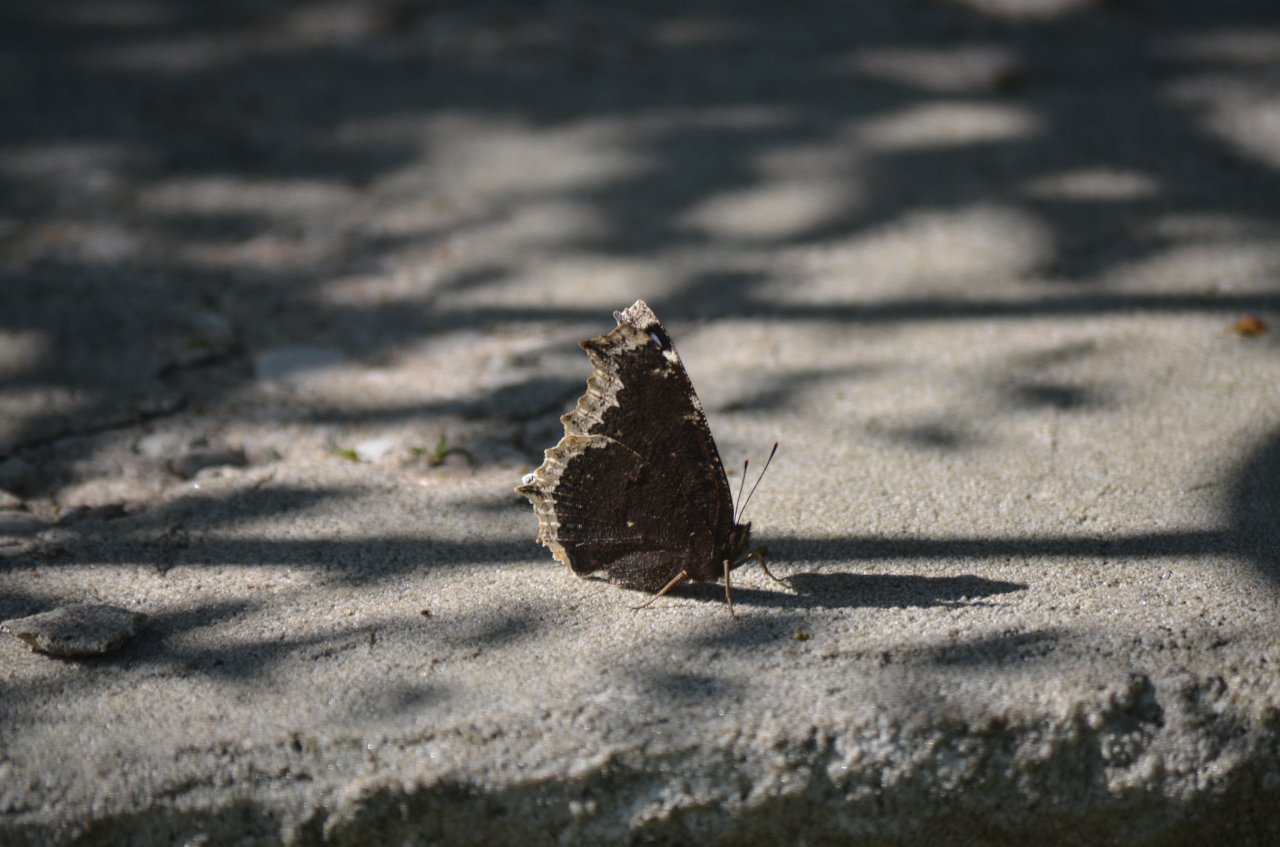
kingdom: Animalia
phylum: Arthropoda
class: Insecta
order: Lepidoptera
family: Nymphalidae
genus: Nymphalis
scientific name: Nymphalis antiopa
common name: Mourning Cloak
